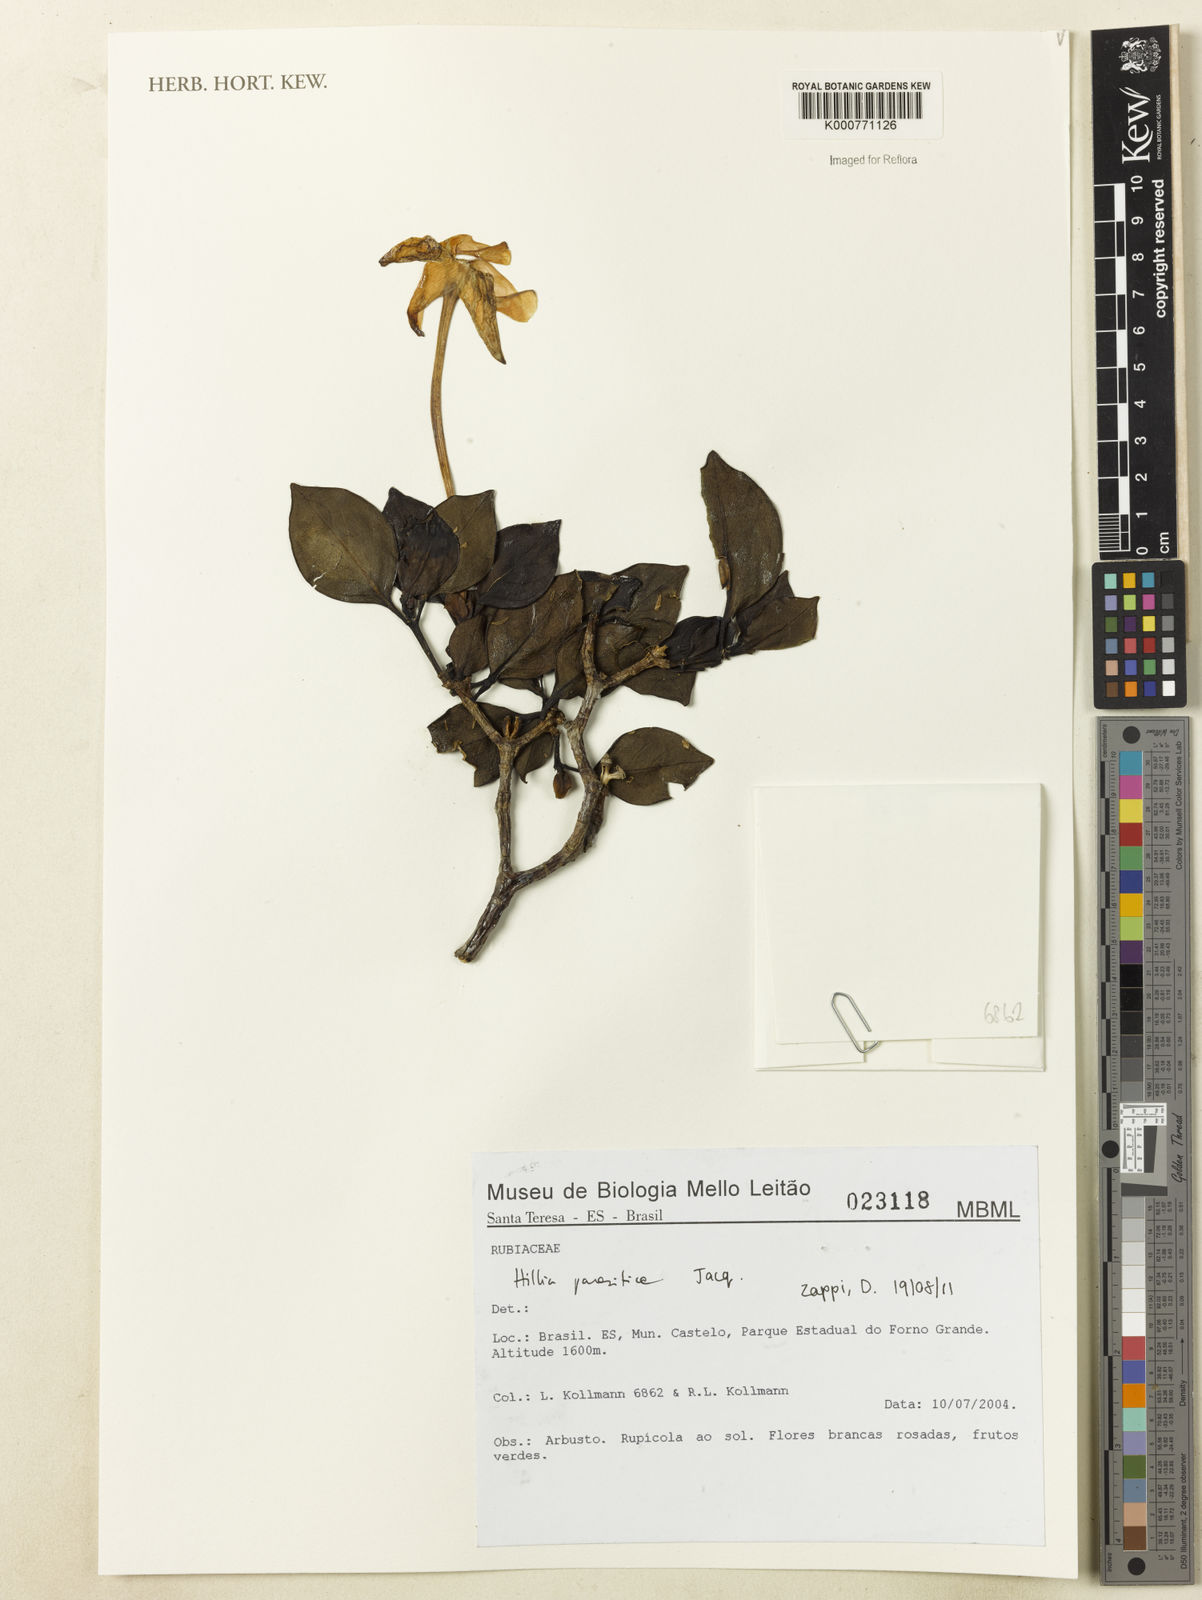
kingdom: Plantae
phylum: Tracheophyta
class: Magnoliopsida
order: Gentianales
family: Rubiaceae
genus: Hillia
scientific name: Hillia parasitica
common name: Morning star
